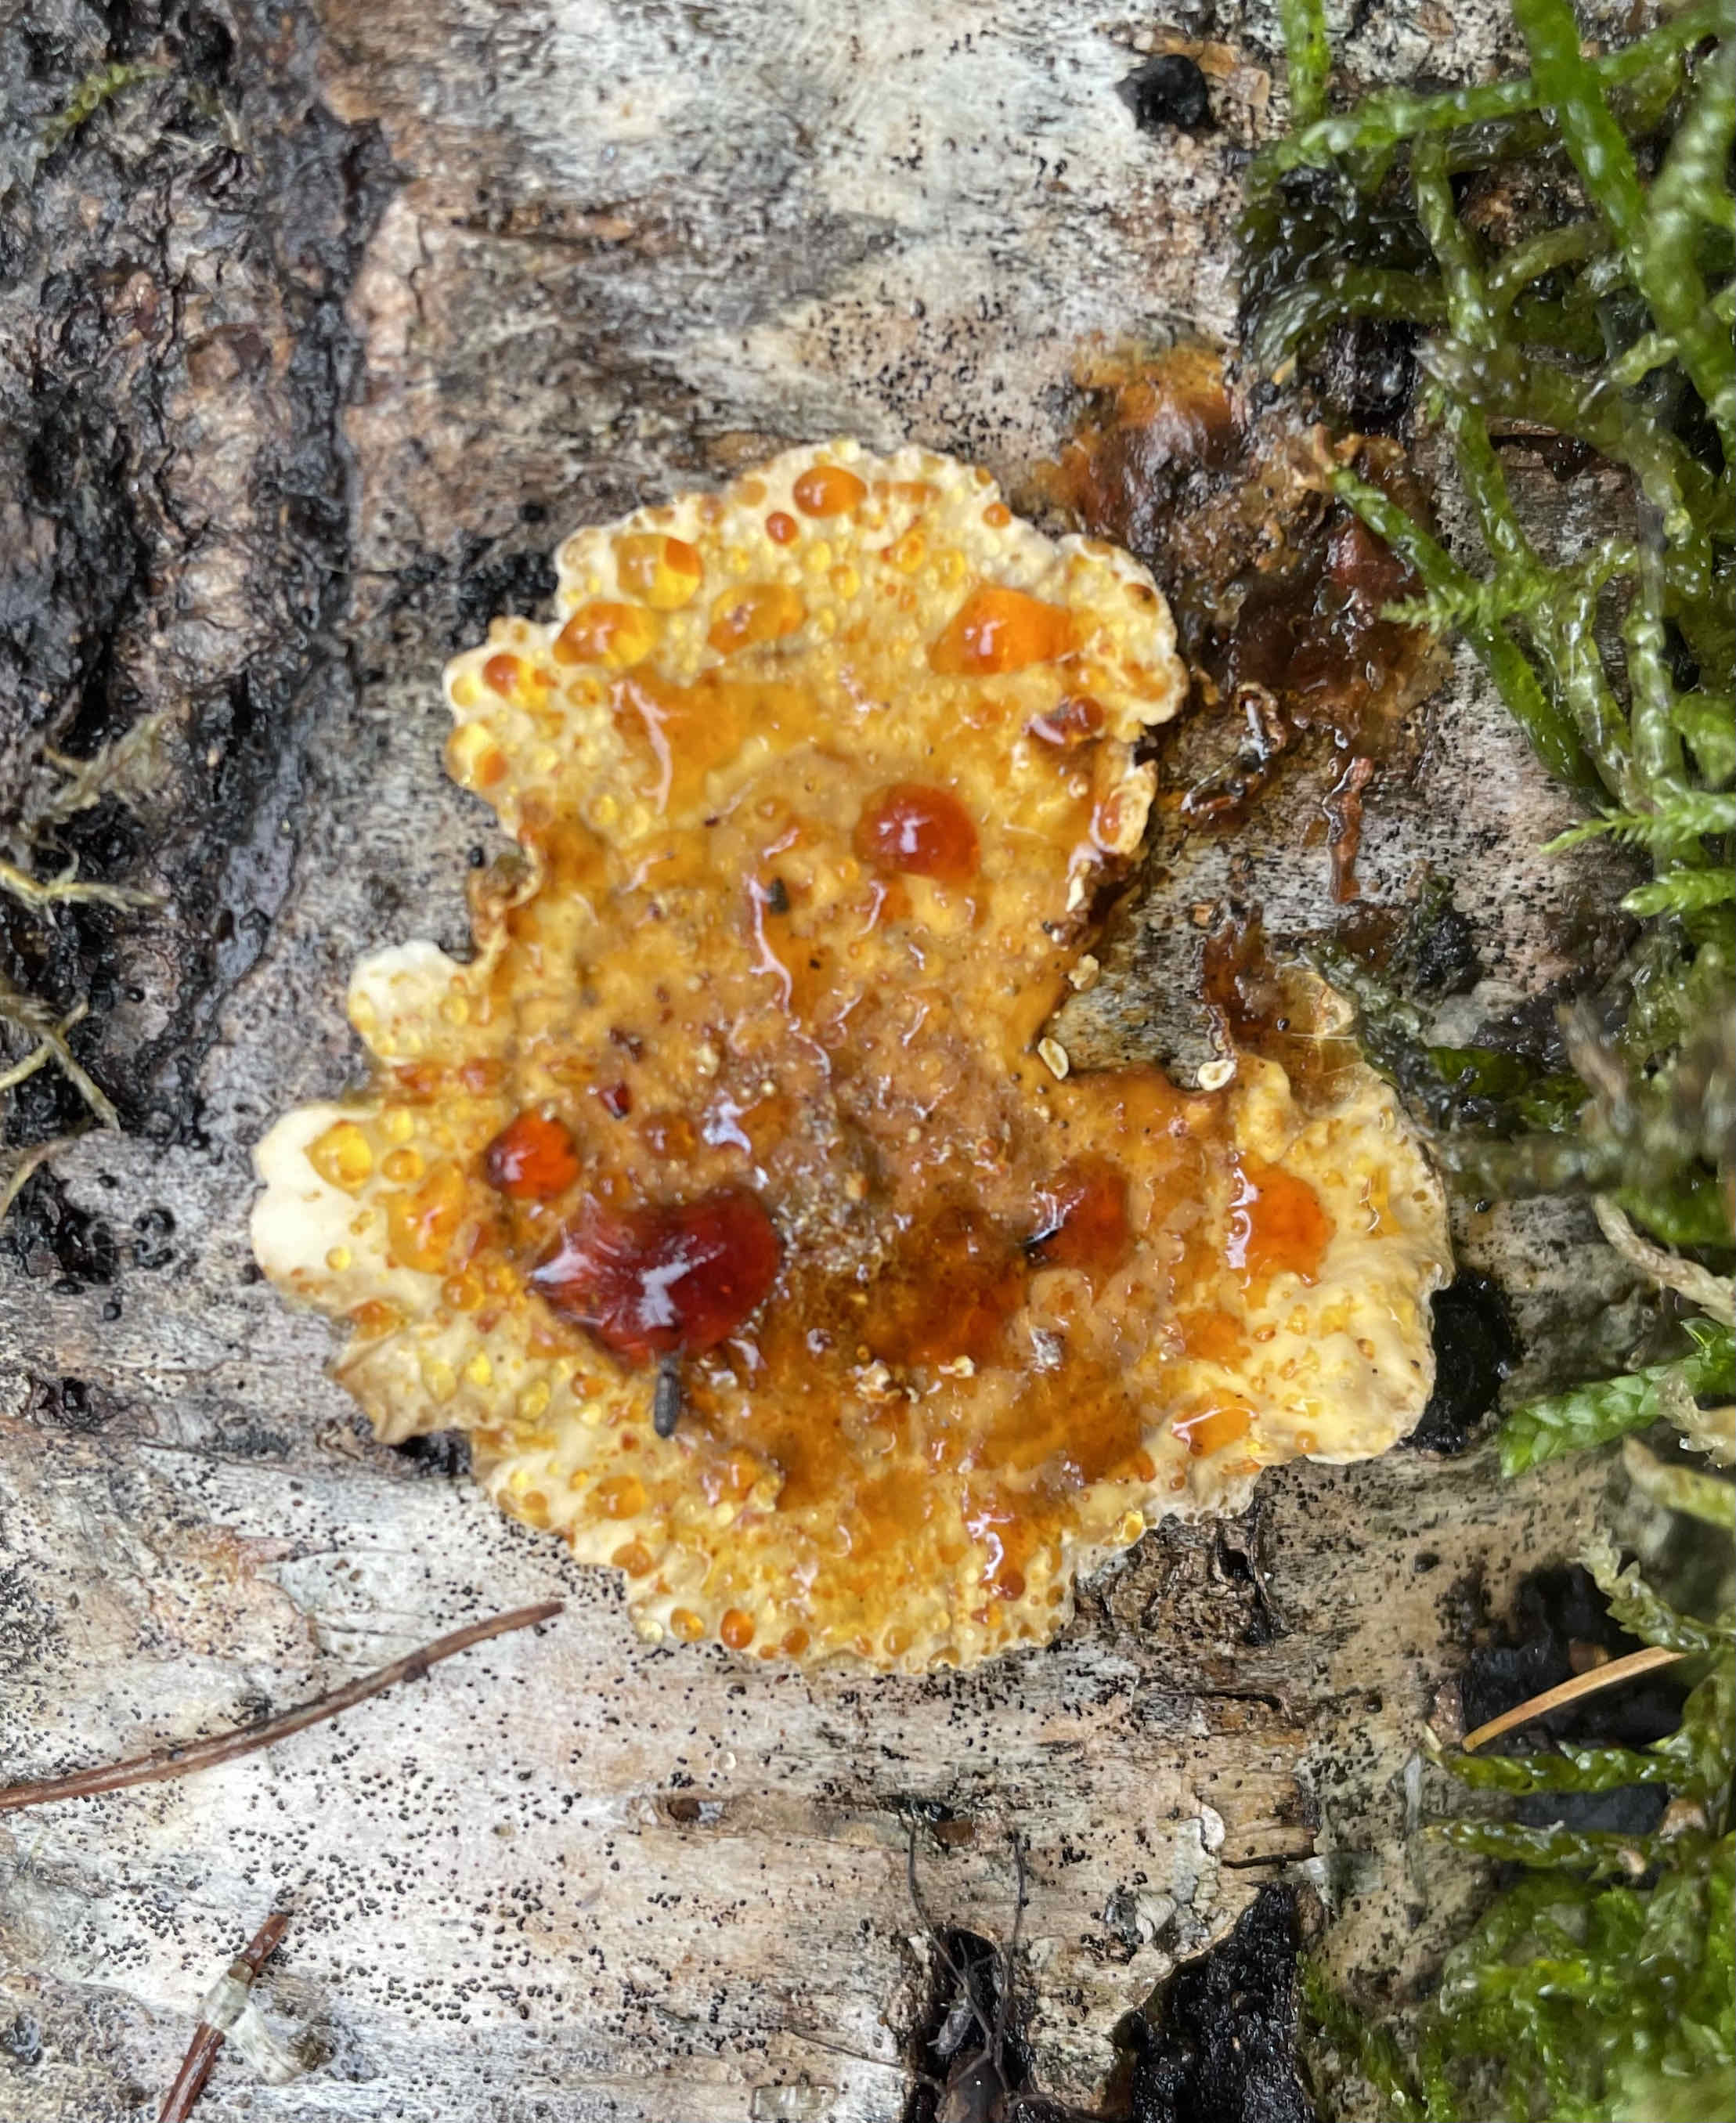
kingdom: Fungi
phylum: Basidiomycota
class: Agaricomycetes
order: Russulales
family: Stereaceae
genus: Stereum
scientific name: Stereum
